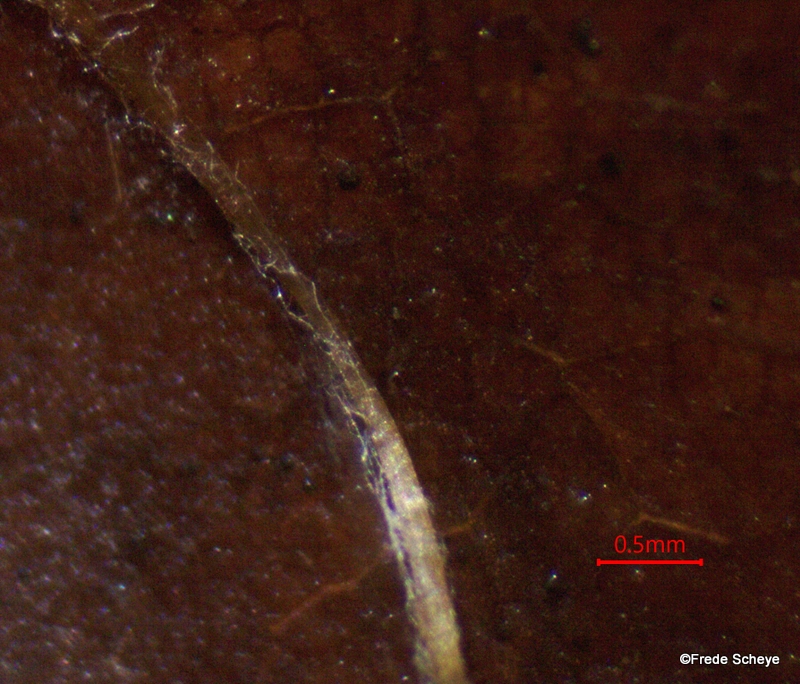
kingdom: Fungi
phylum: Basidiomycota
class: Agaricomycetes
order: Agaricales
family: Physalacriaceae
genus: Rhizomarasmius
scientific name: Rhizomarasmius setosus
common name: bøgeblads-bruskhat
